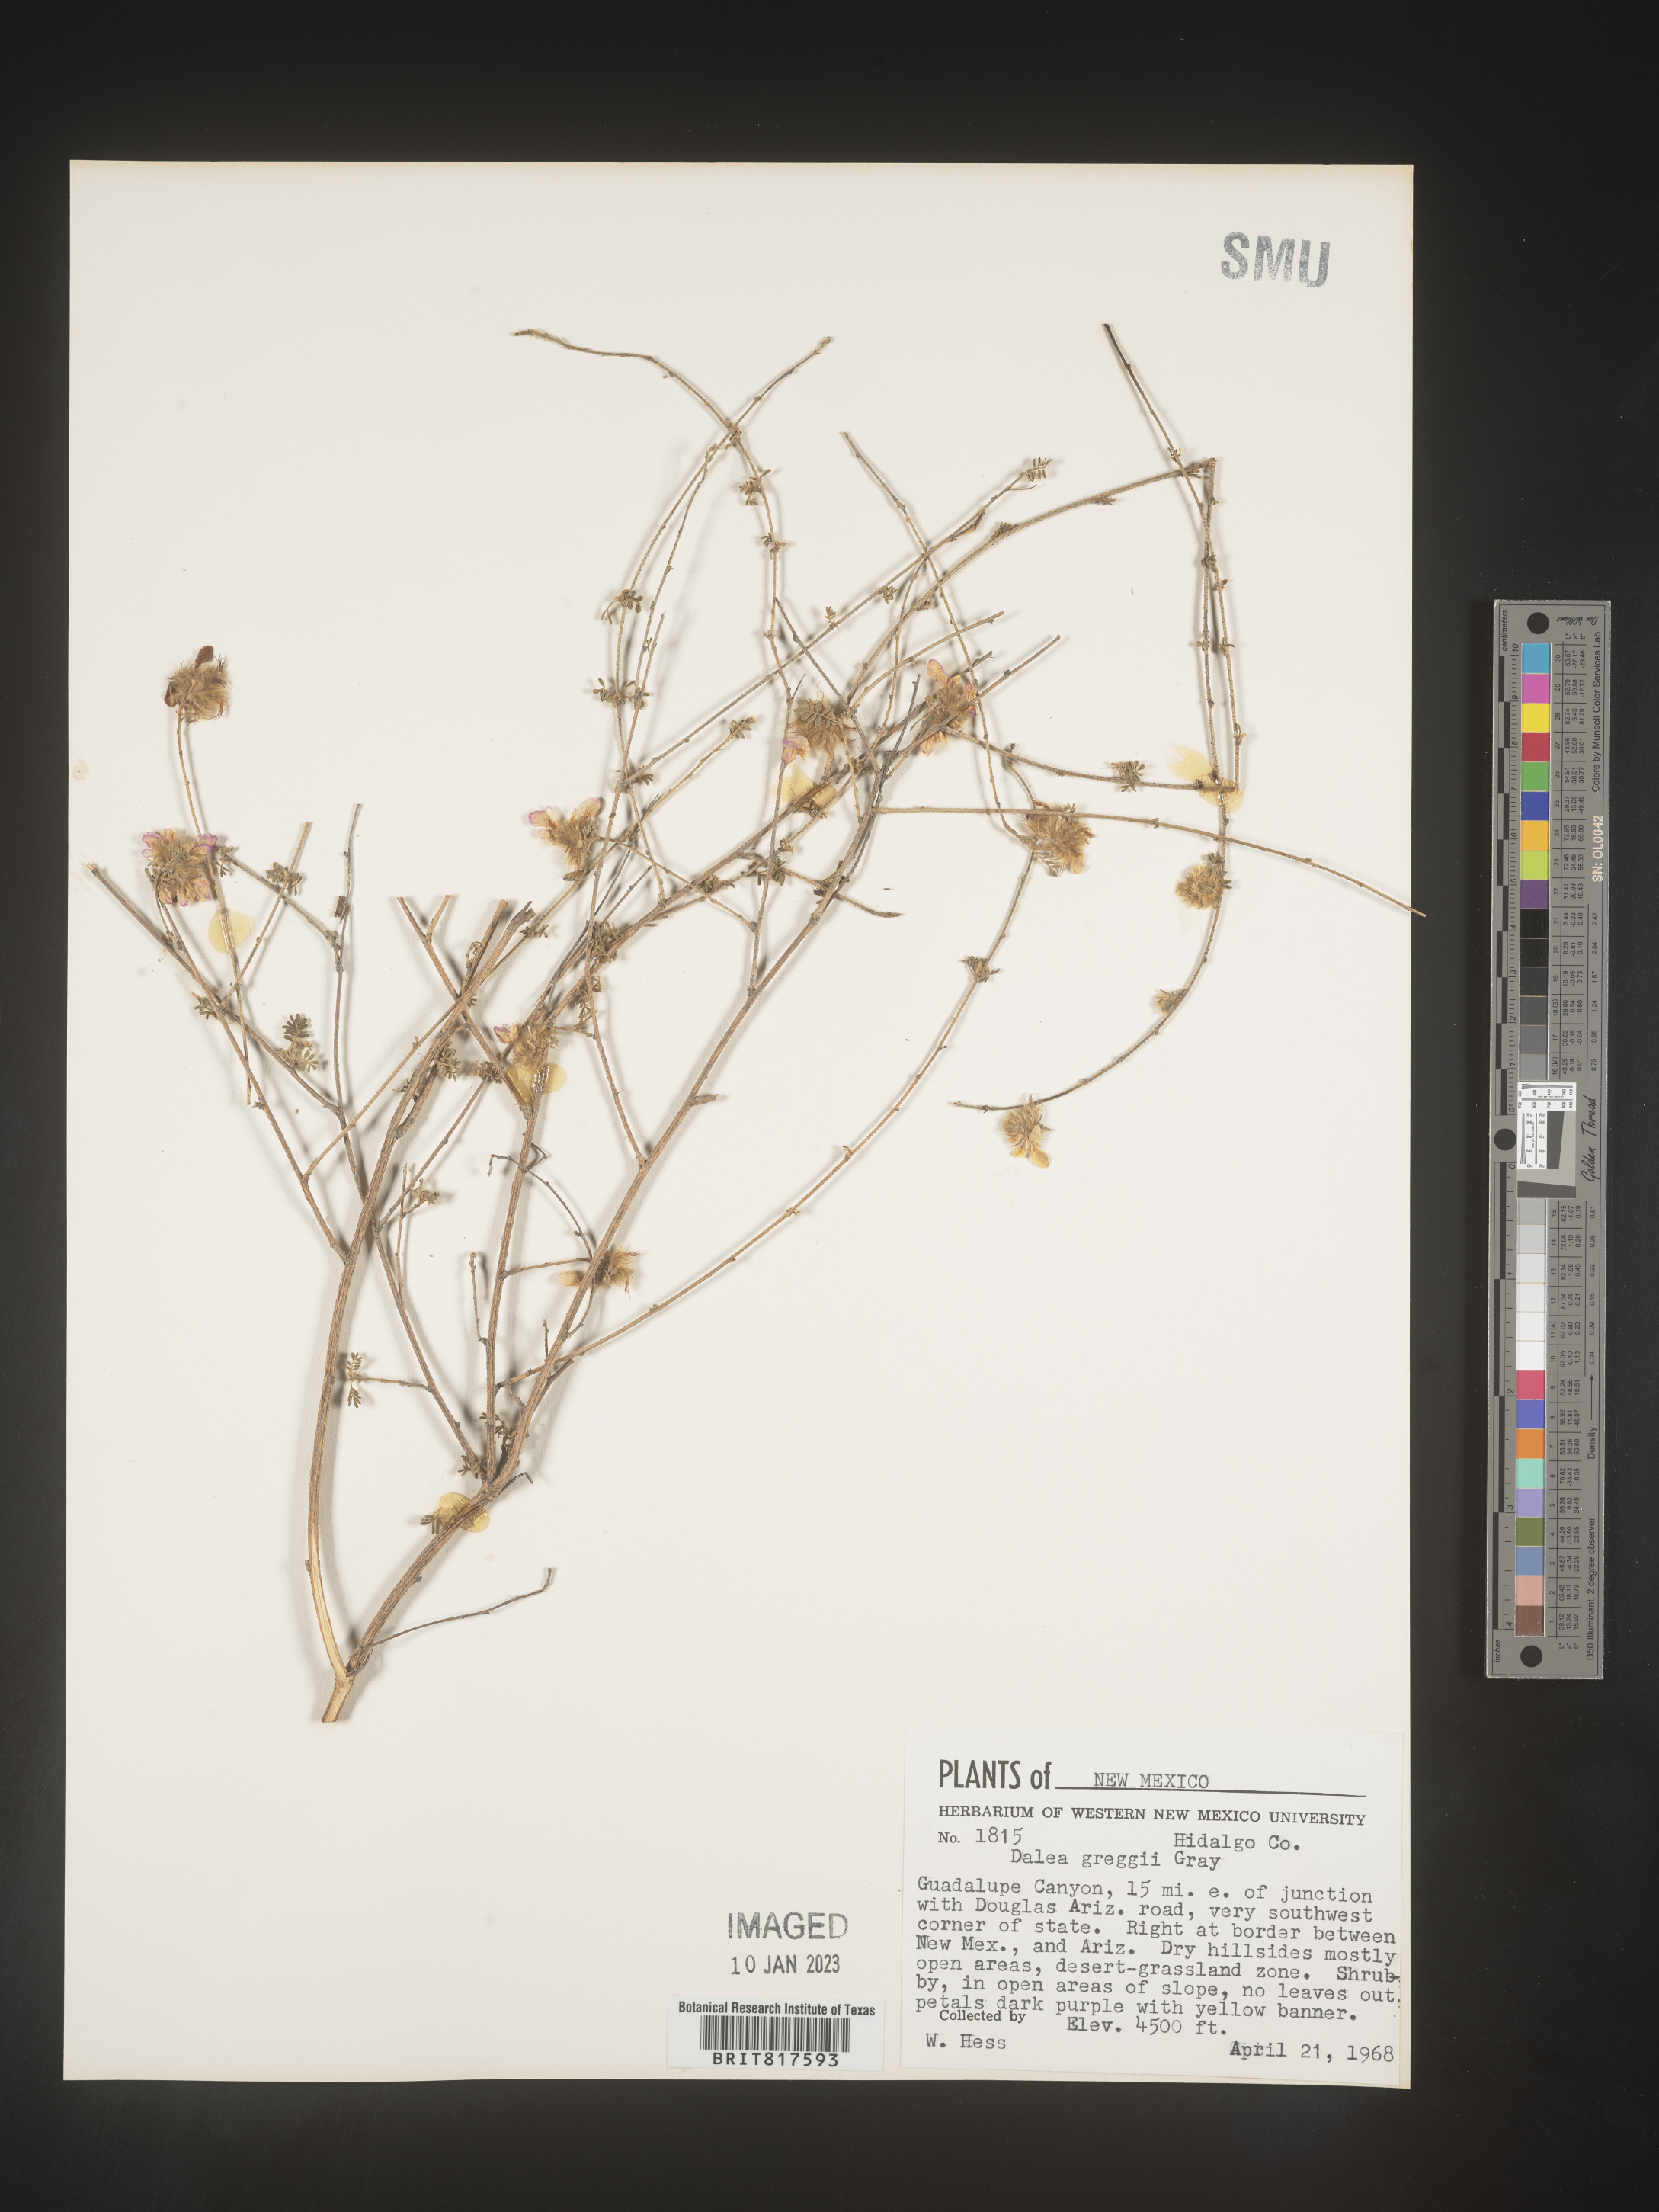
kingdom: Plantae
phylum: Tracheophyta
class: Magnoliopsida
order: Fabales
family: Fabaceae
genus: Dalea
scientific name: Dalea greggii
